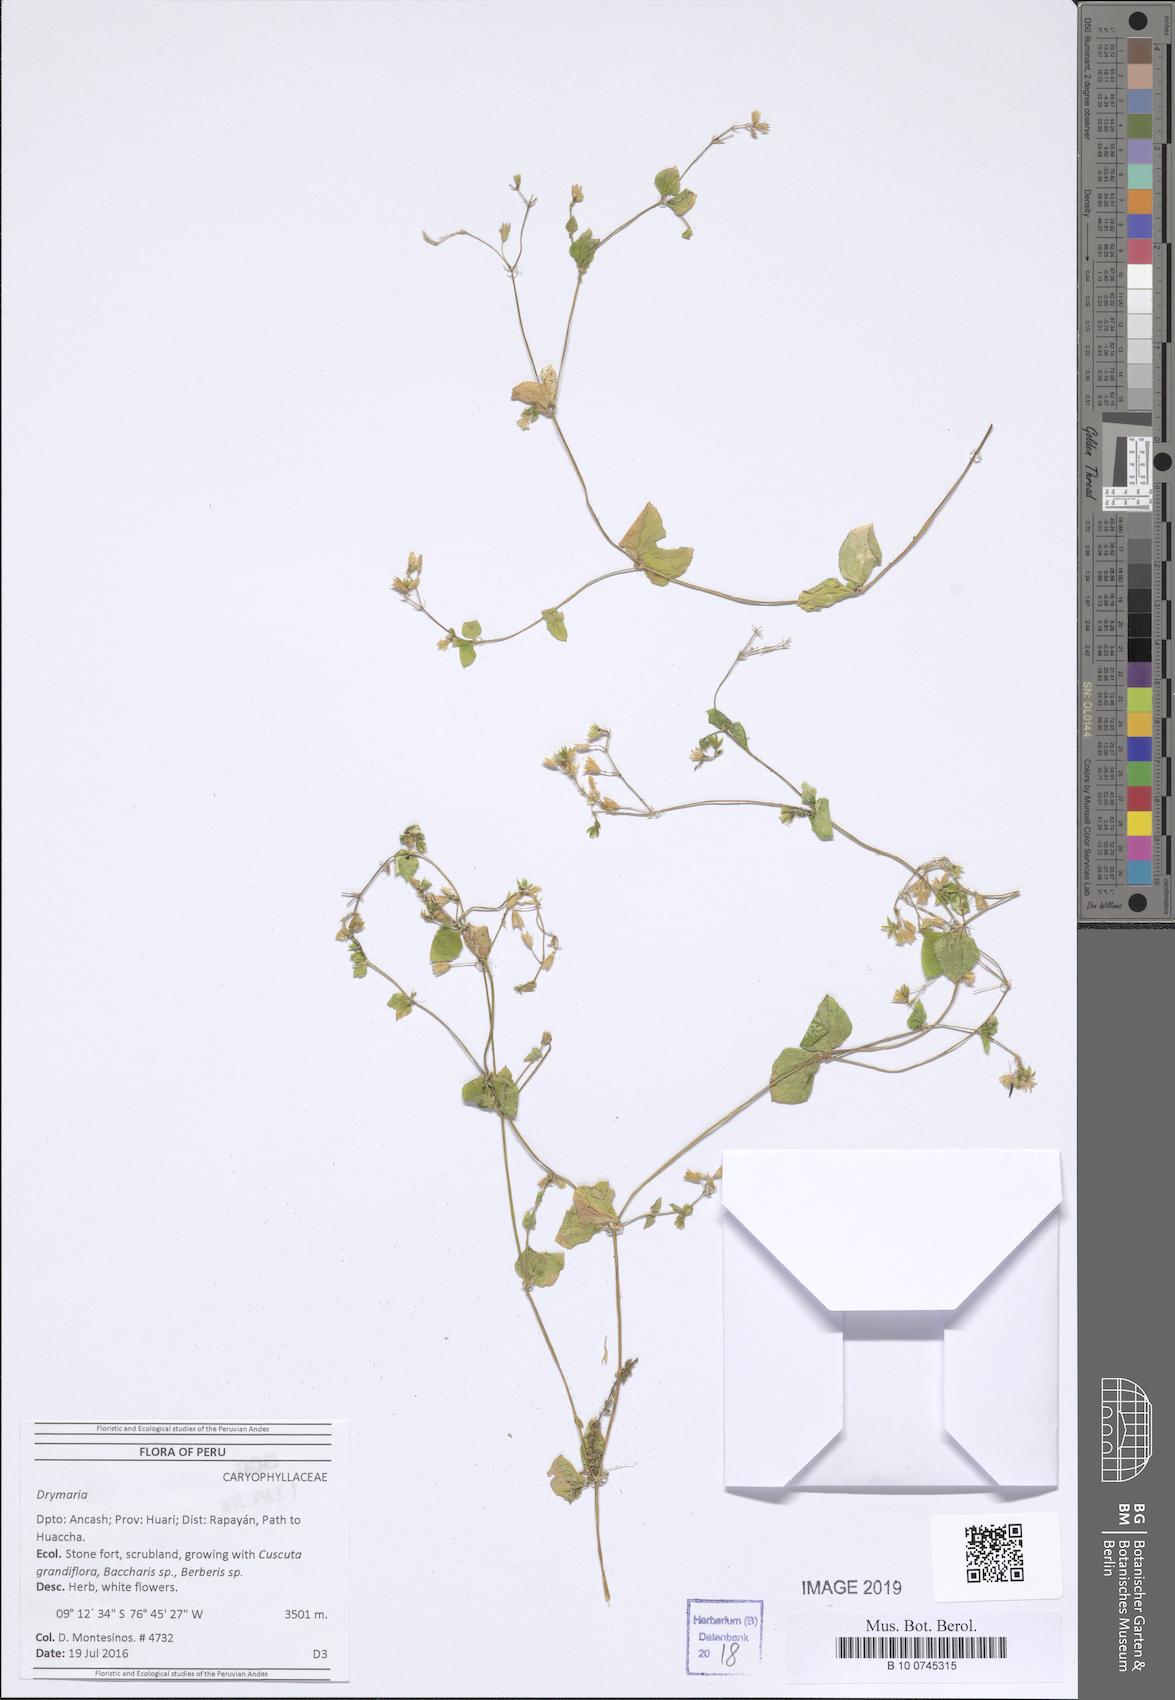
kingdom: Plantae
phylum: Tracheophyta
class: Magnoliopsida
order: Caryophyllales
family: Caryophyllaceae
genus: Drymaria
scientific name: Drymaria
